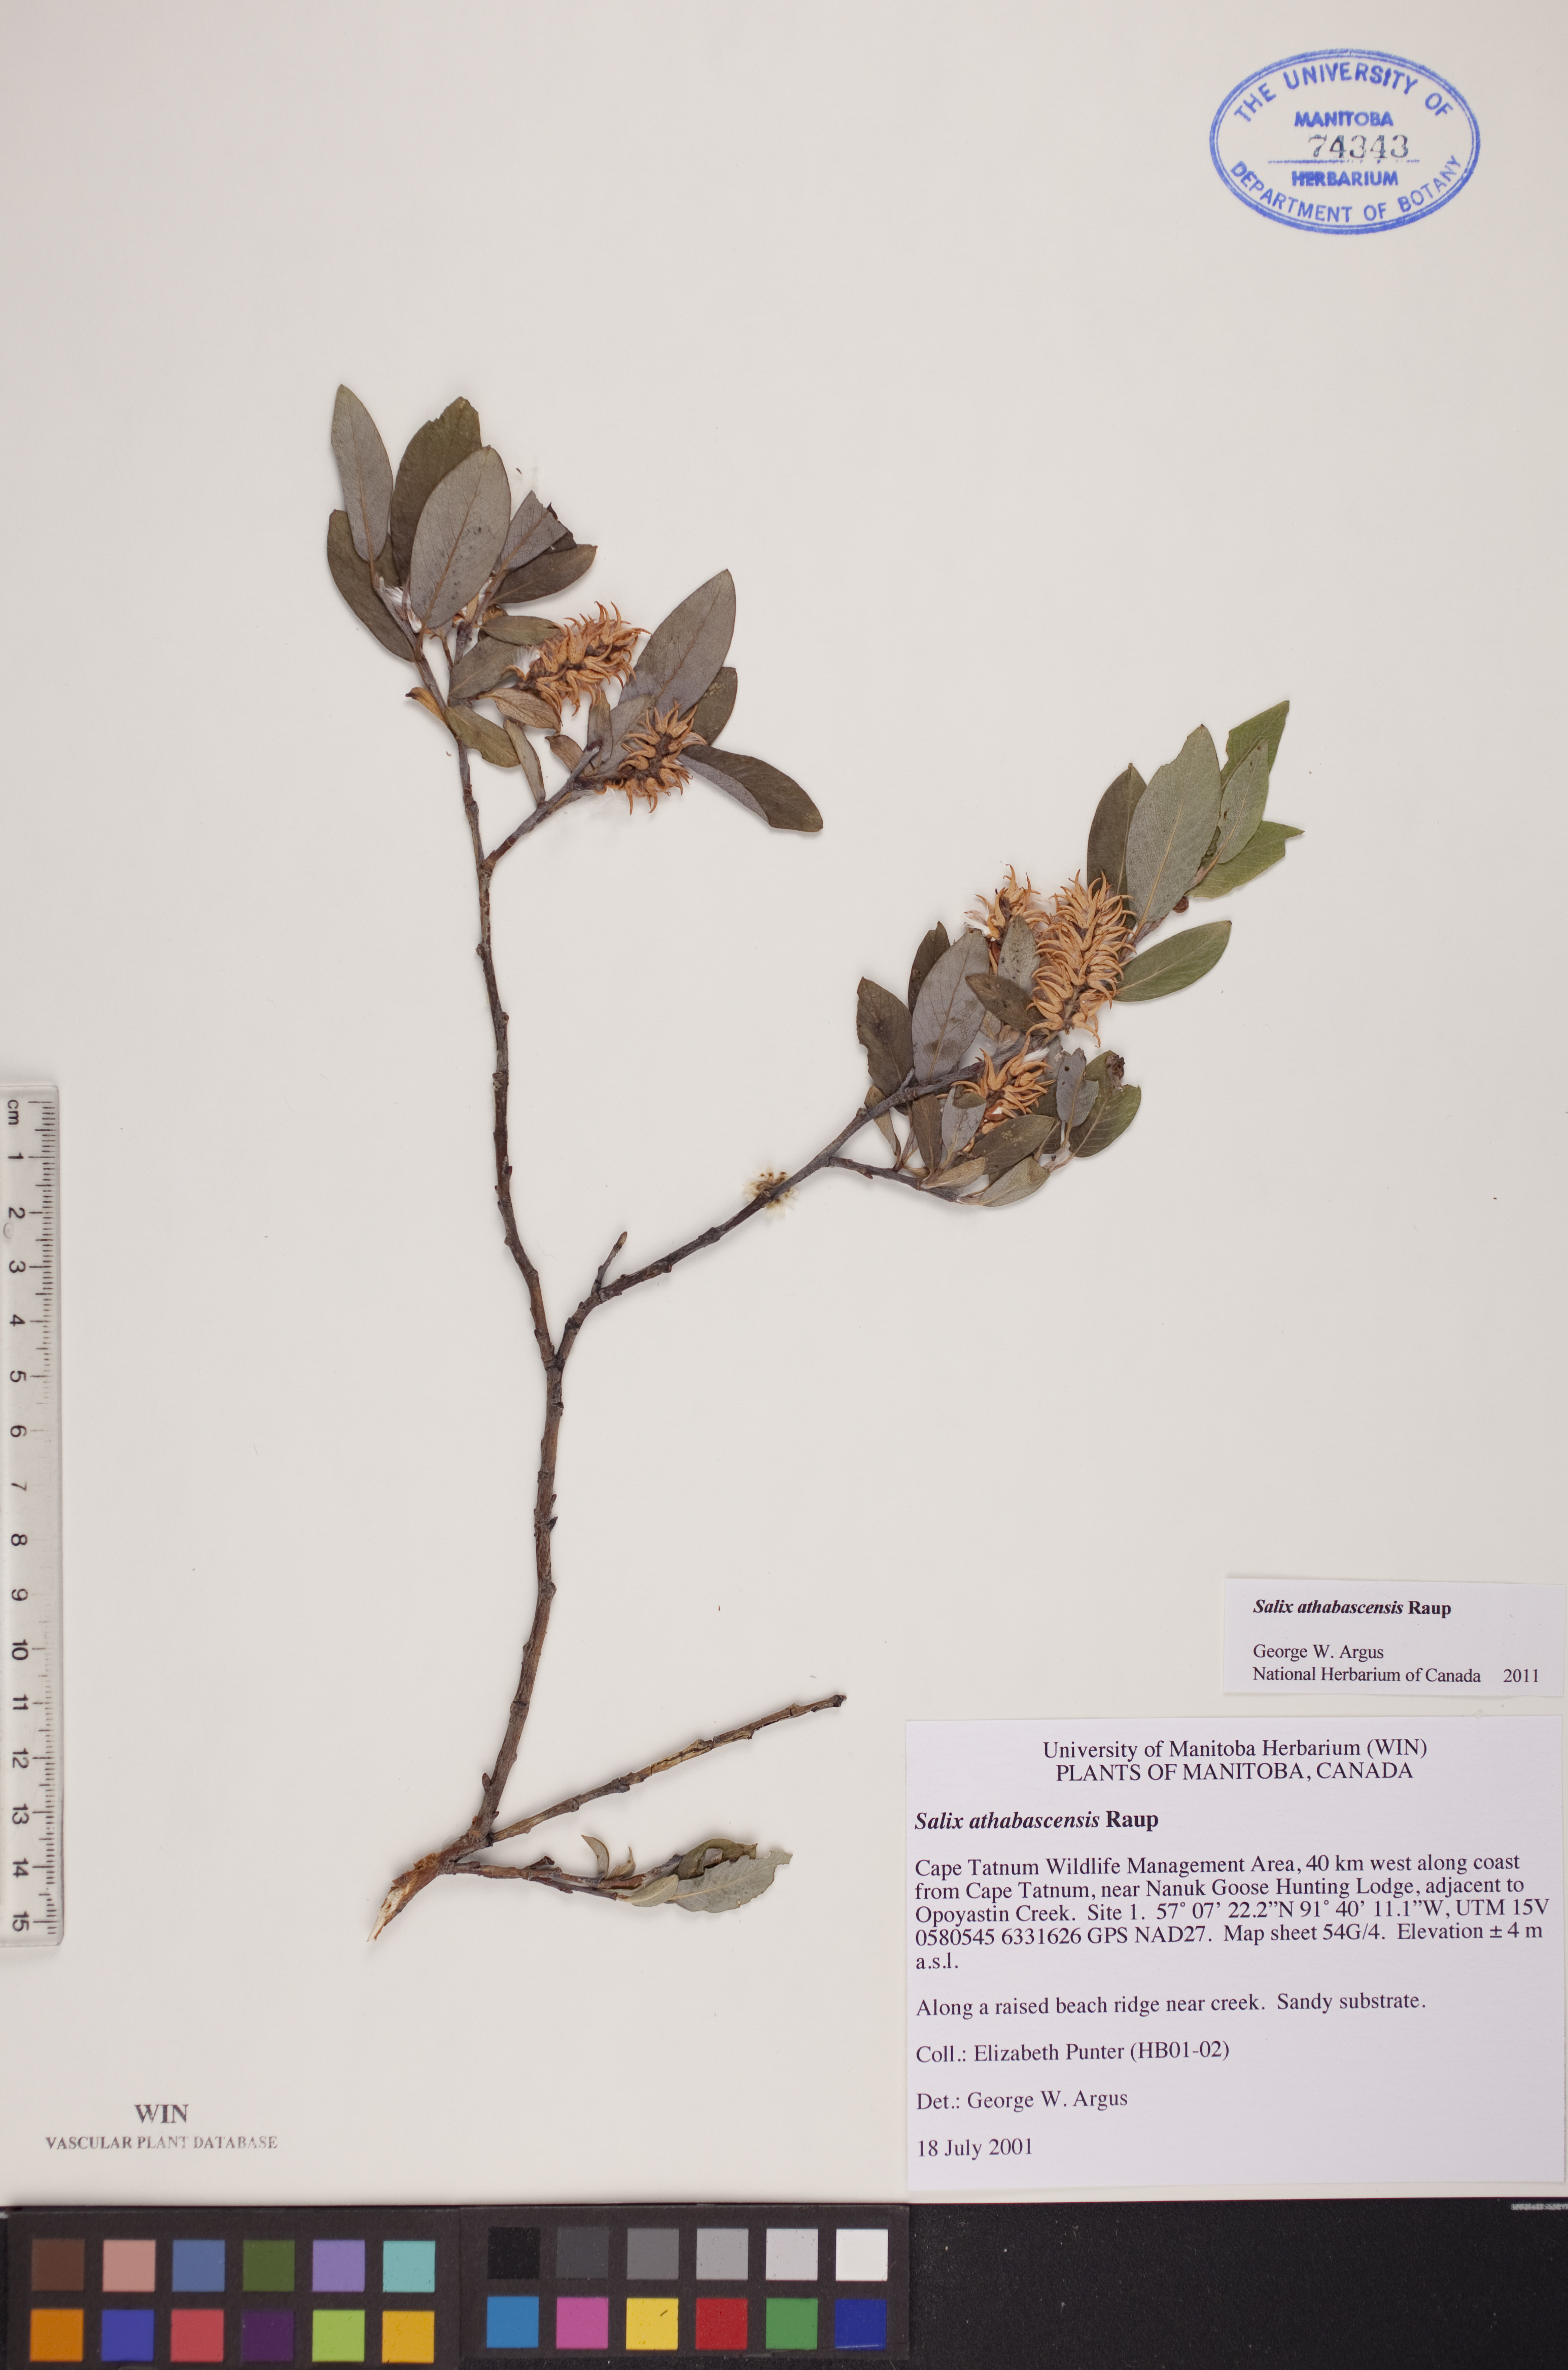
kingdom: Plantae
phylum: Tracheophyta
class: Magnoliopsida
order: Malpighiales
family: Salicaceae
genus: Salix
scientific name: Salix athabascensis
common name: Athabasca willow
